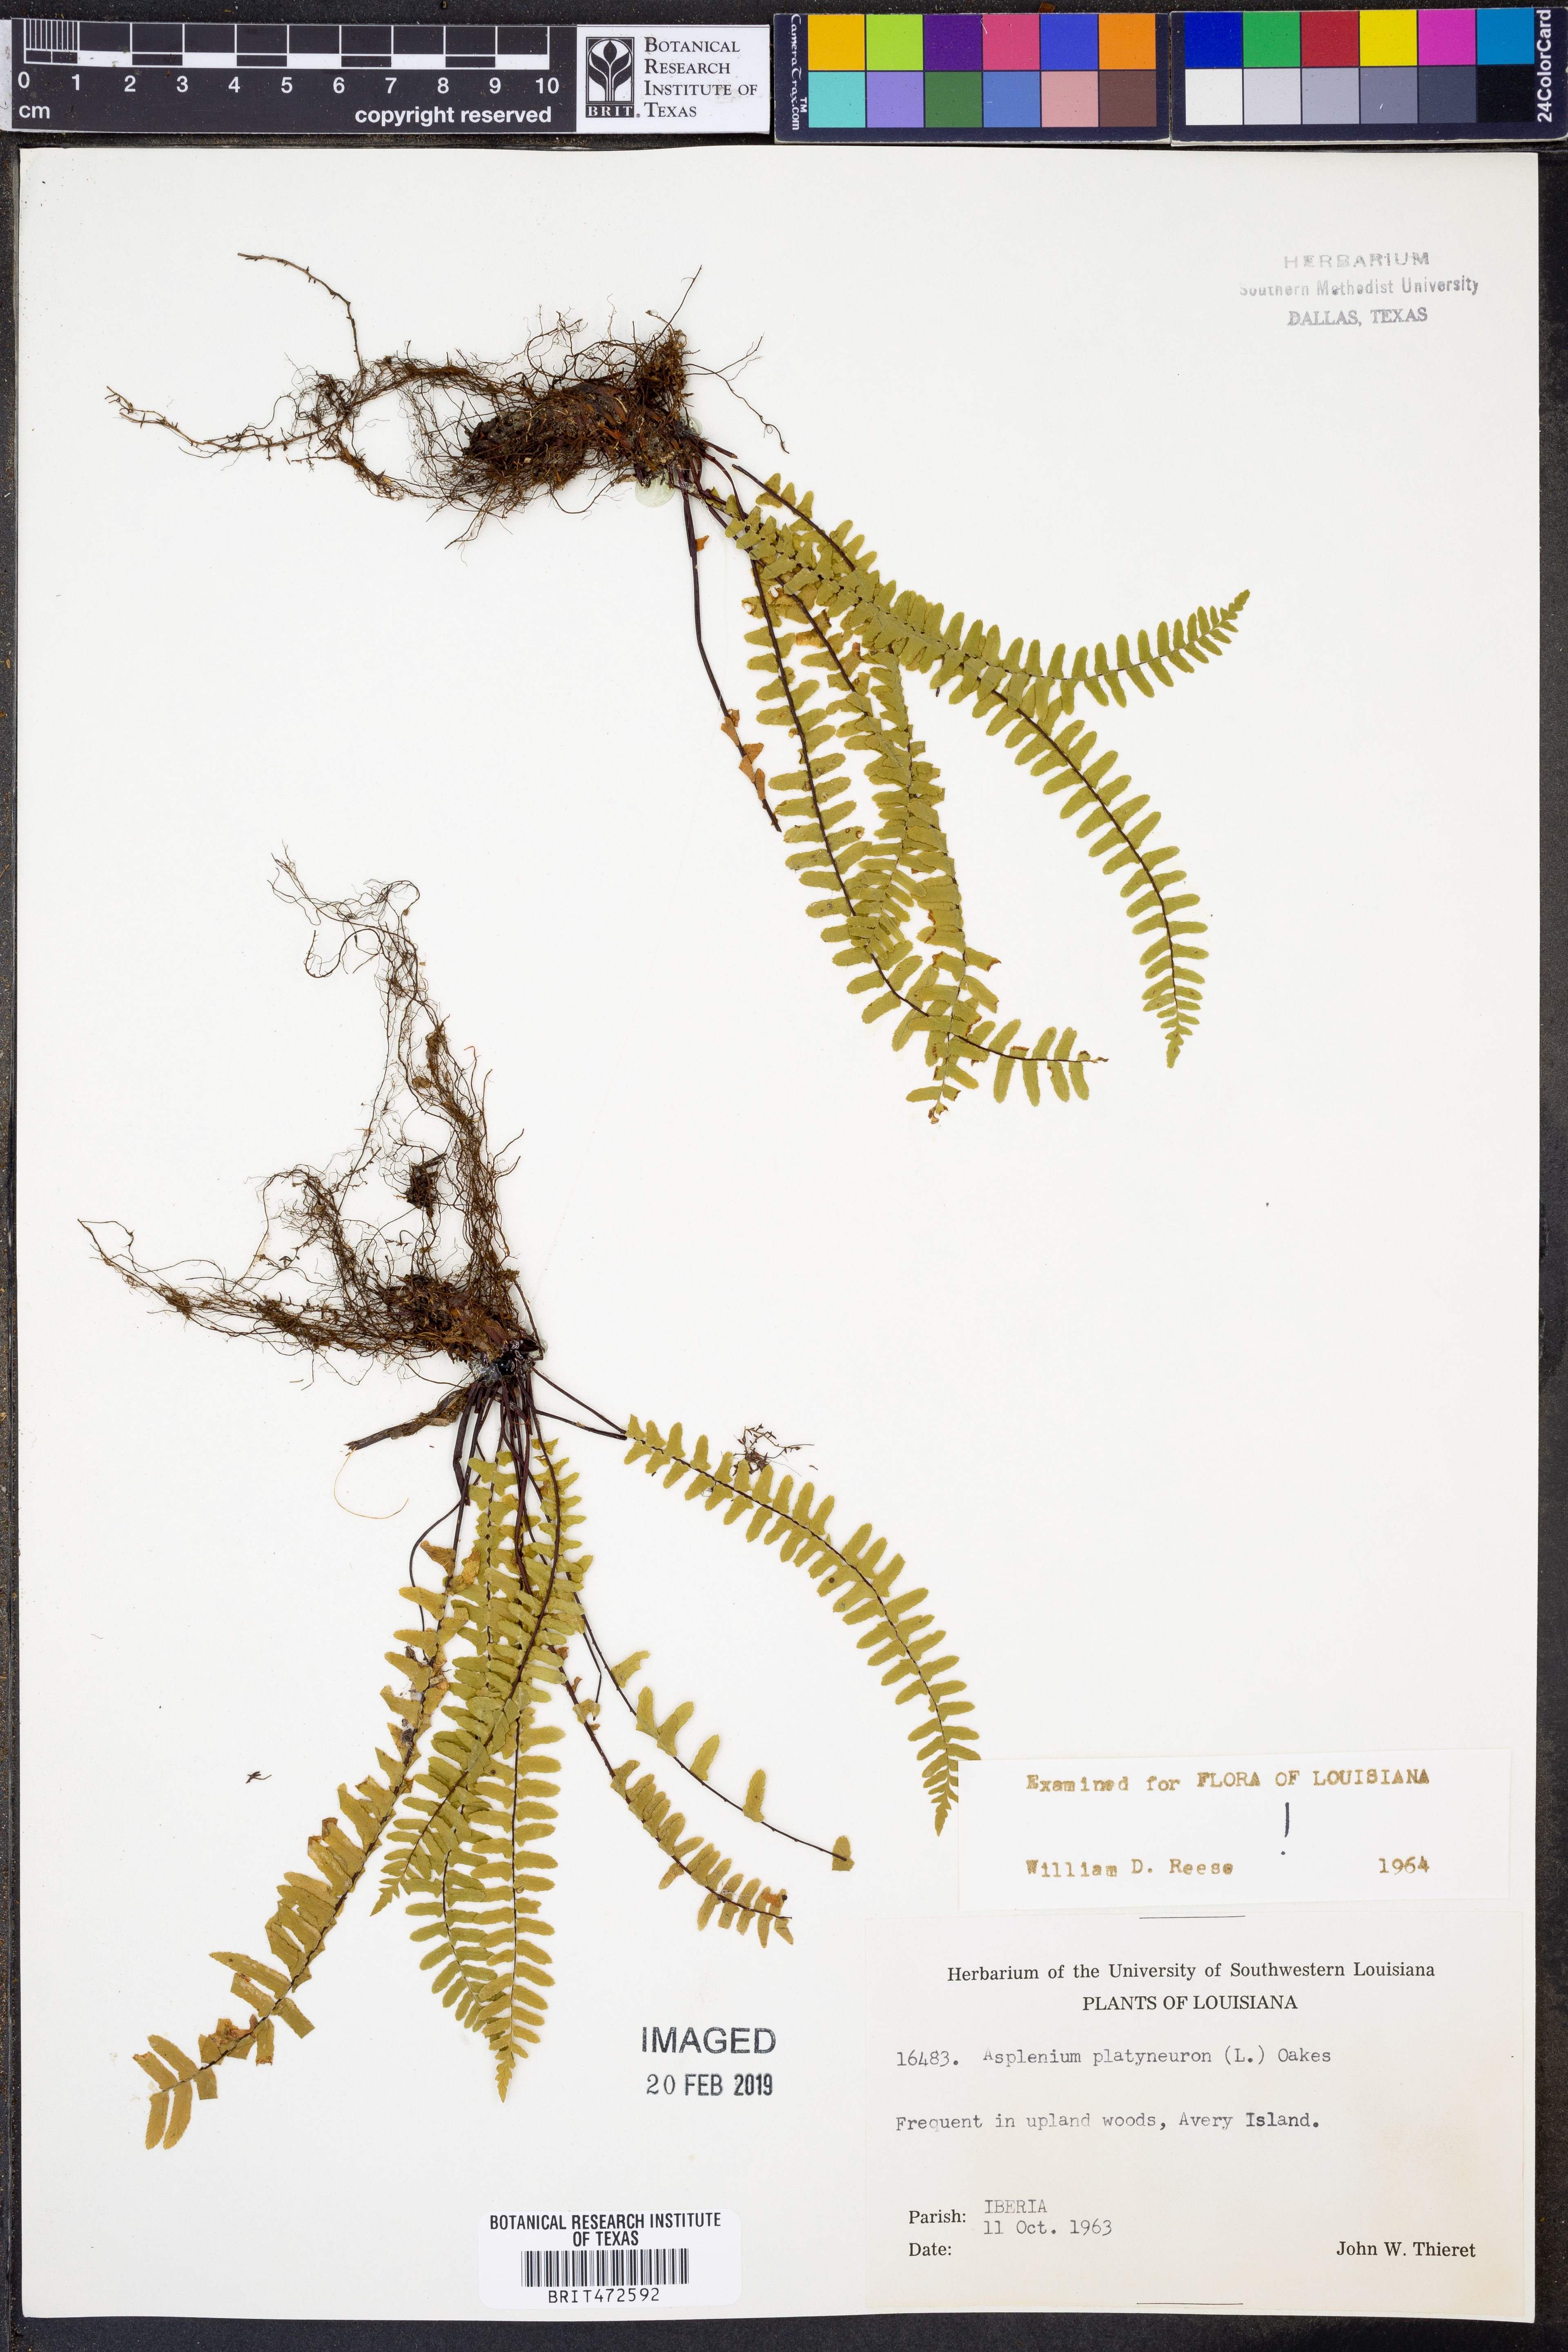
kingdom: Plantae
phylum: Tracheophyta
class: Polypodiopsida
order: Polypodiales
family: Aspleniaceae
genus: Asplenium
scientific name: Asplenium platyneuron
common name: Ebony spleenwort
